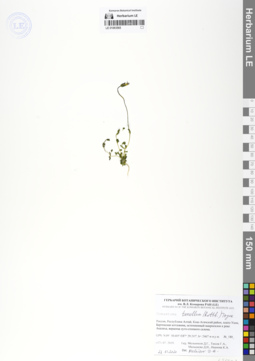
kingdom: Plantae
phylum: Tracheophyta
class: Magnoliopsida
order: Gentianales
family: Gentianaceae
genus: Comastoma
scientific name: Comastoma tenellum
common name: Dane's dwarf gentian
